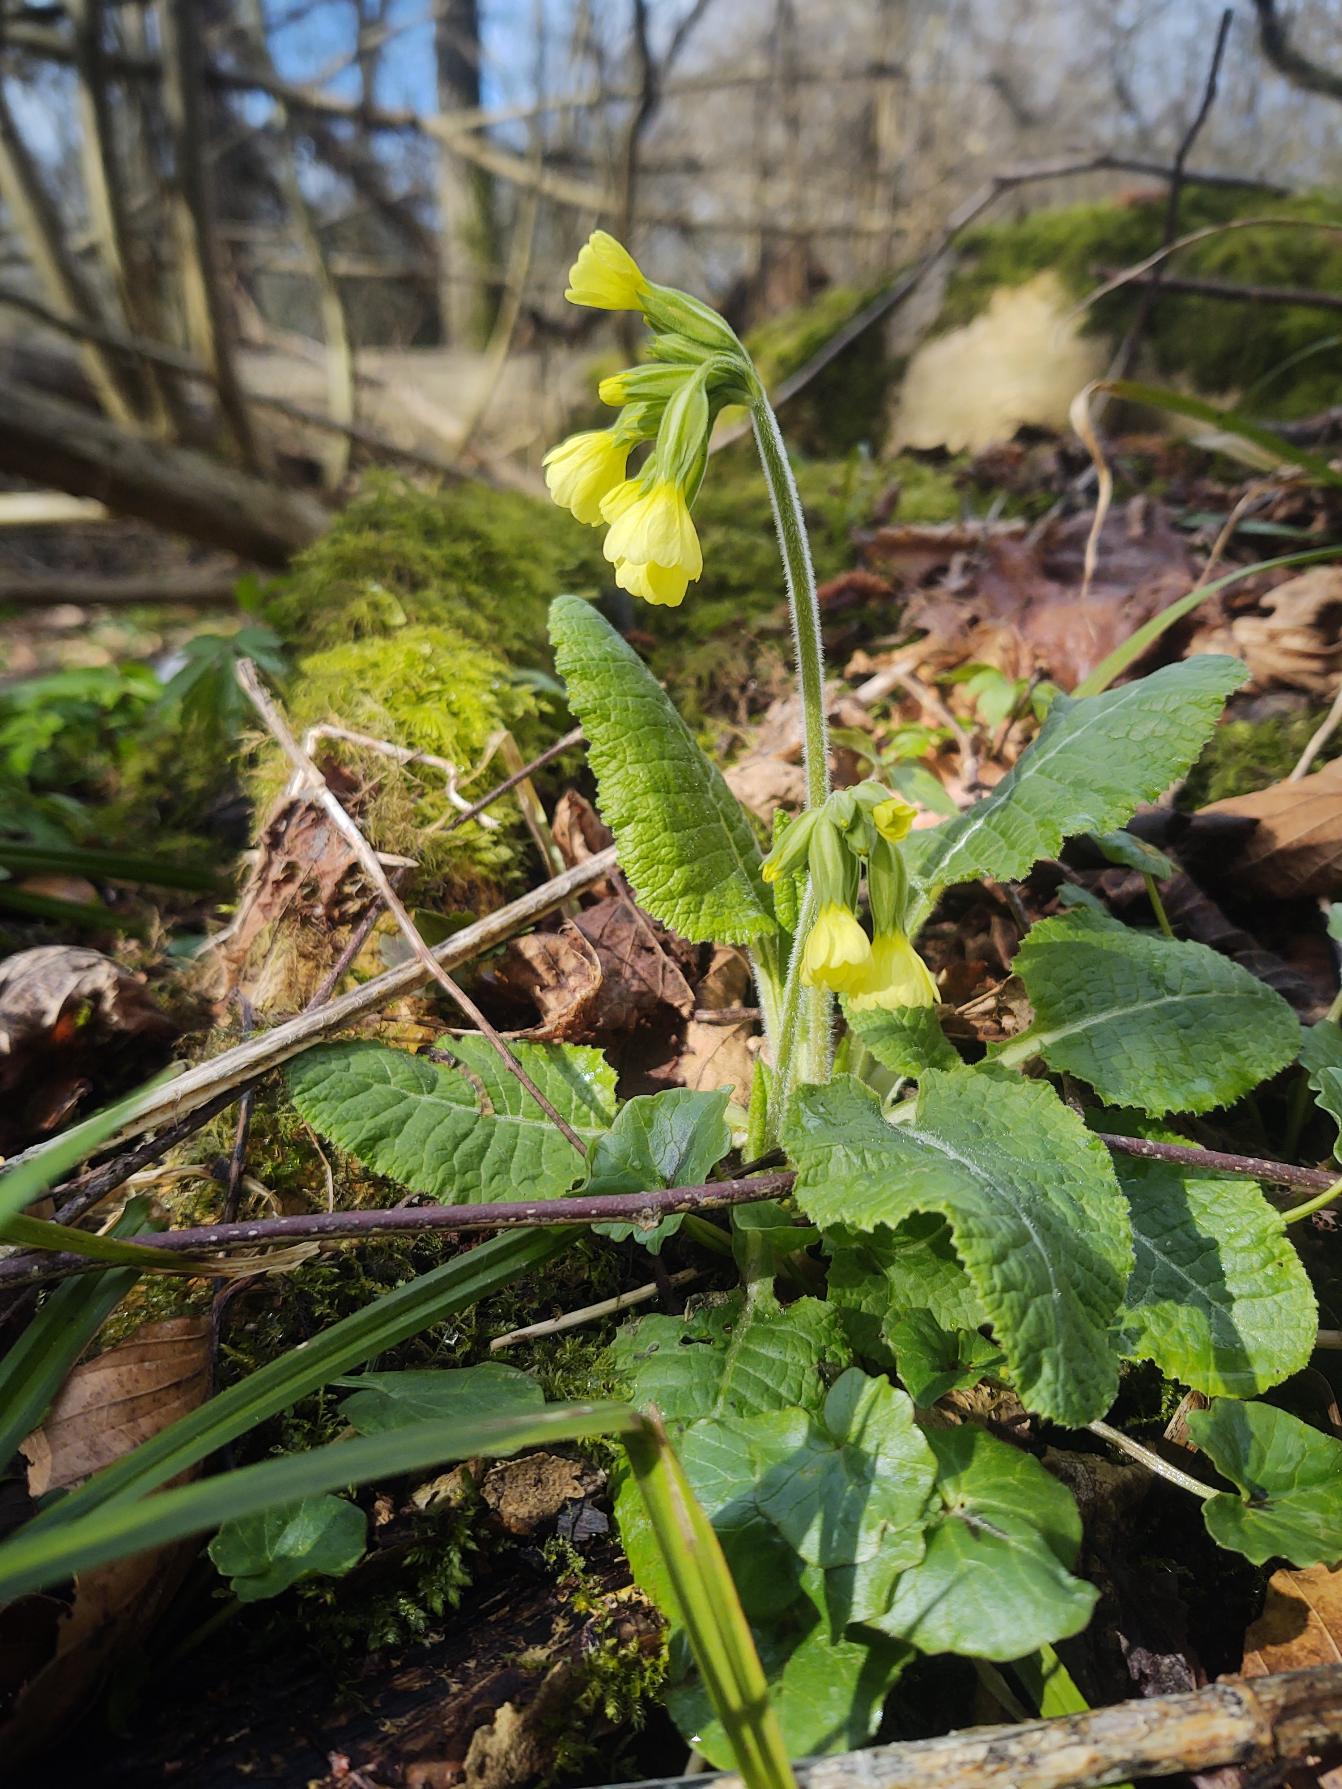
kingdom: Plantae
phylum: Tracheophyta
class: Magnoliopsida
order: Ericales
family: Primulaceae
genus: Primula
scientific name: Primula elatior
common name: Fladkravet kodriver
